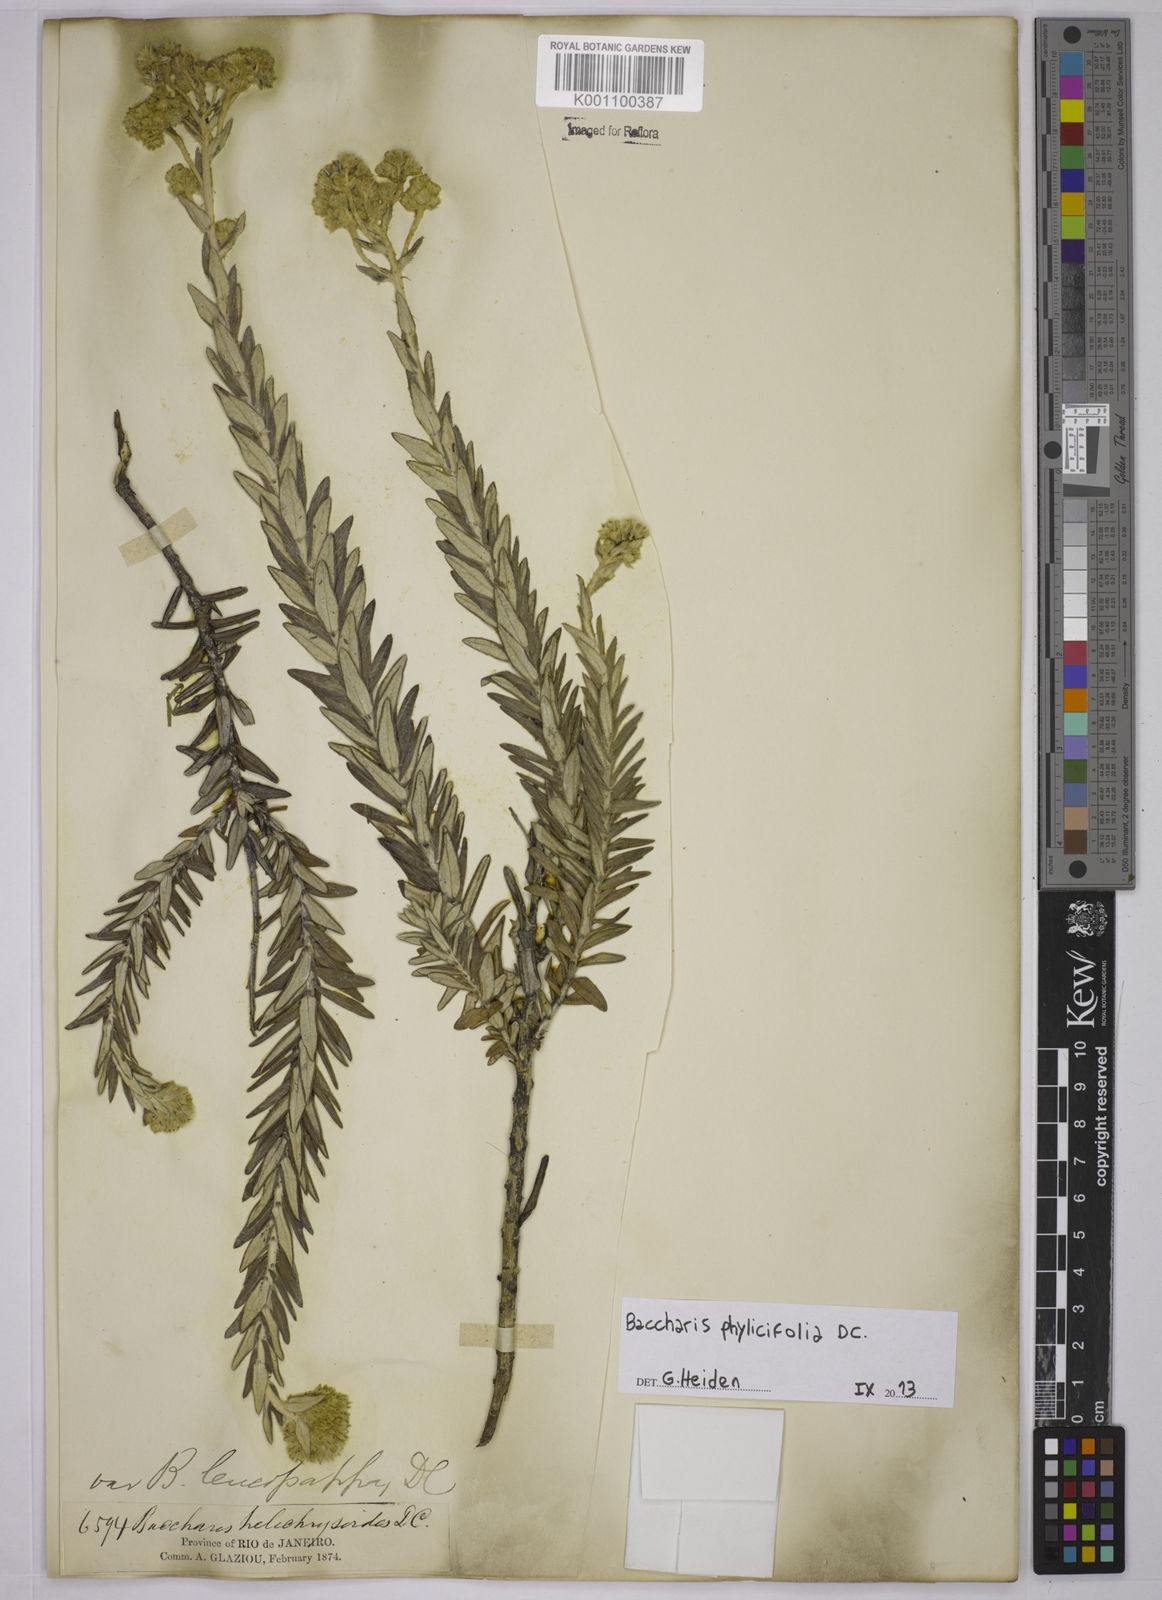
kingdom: Plantae
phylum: Tracheophyta
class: Magnoliopsida
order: Asterales
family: Asteraceae
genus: Baccharis
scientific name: Baccharis leucopappa
